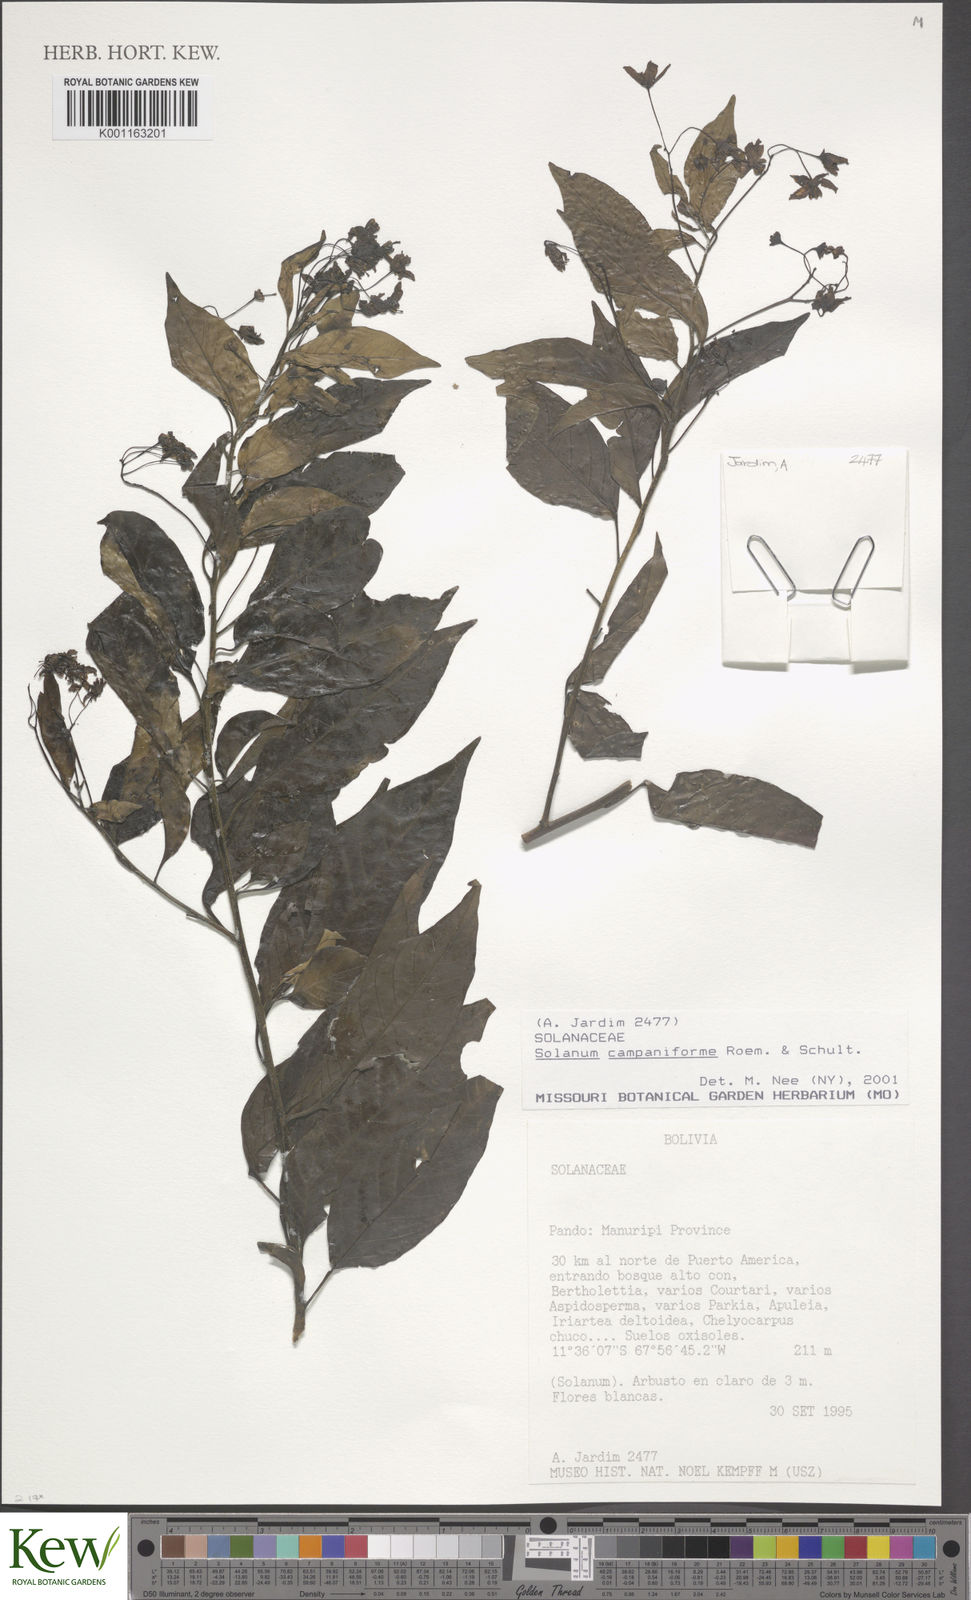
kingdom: Plantae
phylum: Tracheophyta
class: Magnoliopsida
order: Solanales
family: Solanaceae
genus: Solanum
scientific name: Solanum campaniforme
